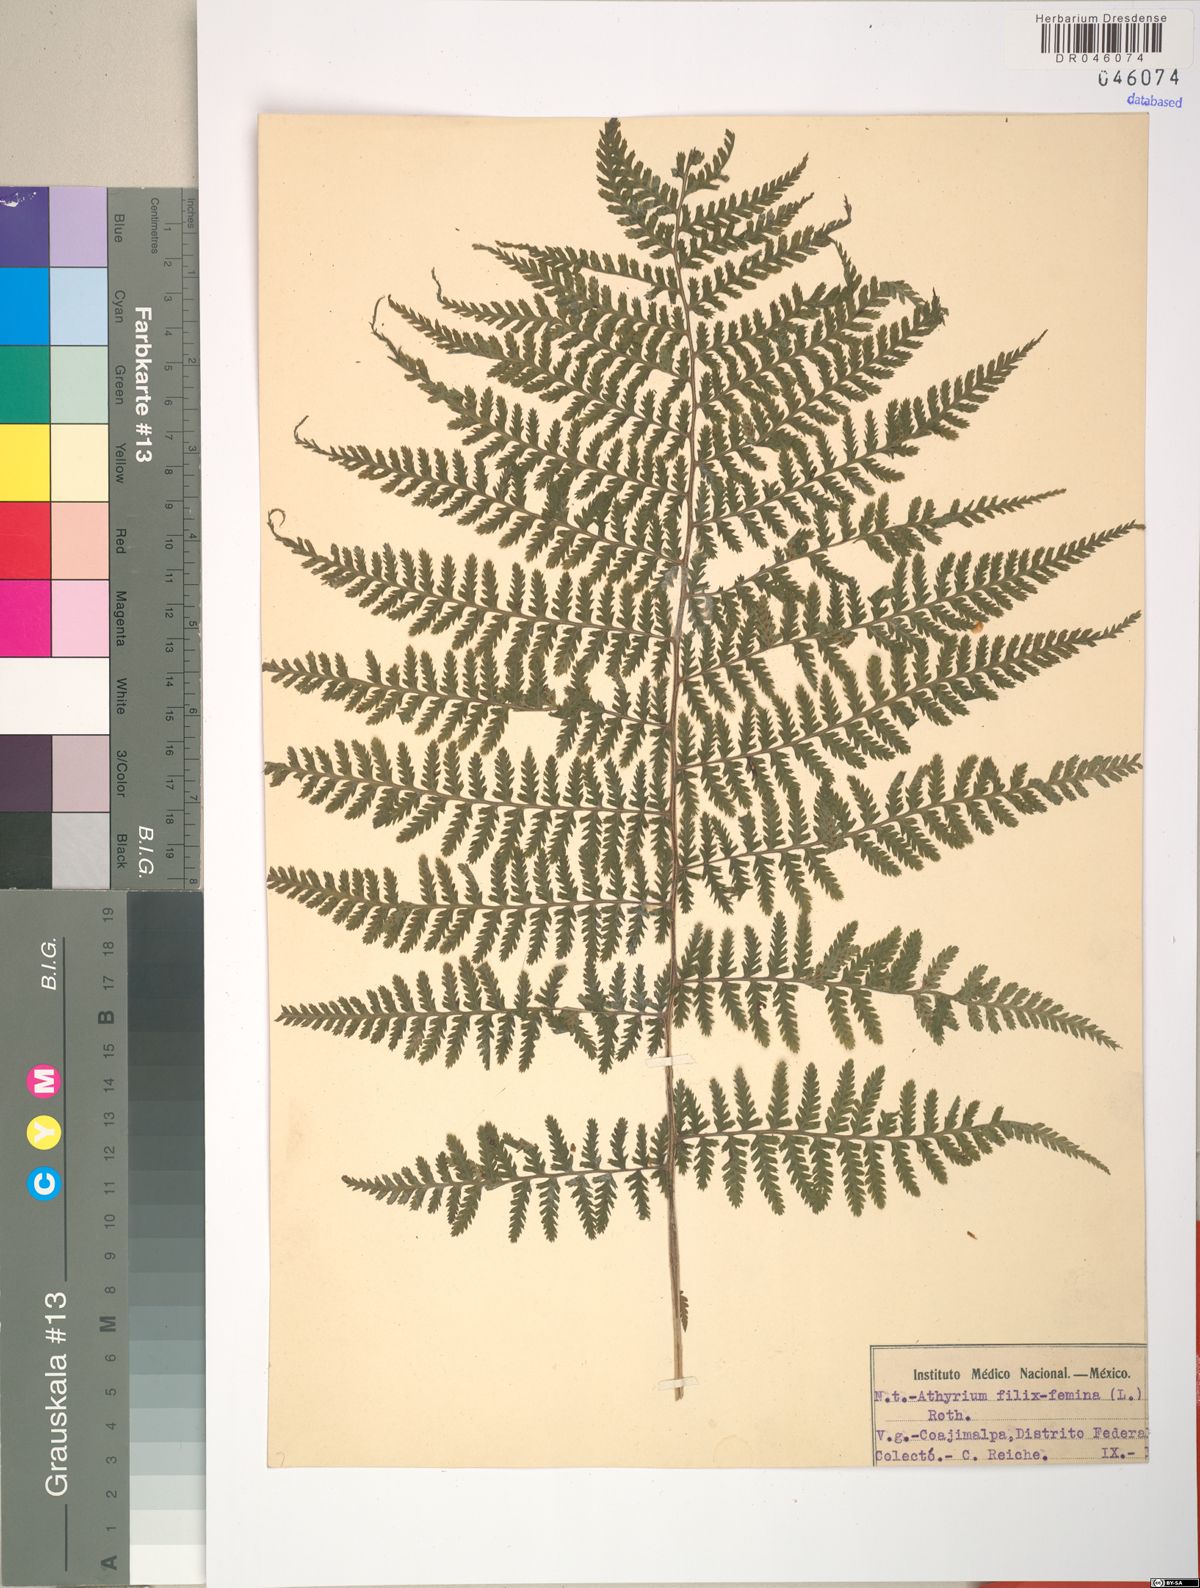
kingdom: Plantae
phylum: Tracheophyta
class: Polypodiopsida
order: Polypodiales
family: Athyriaceae
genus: Athyrium
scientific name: Athyrium filix-femina
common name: Lady fern
